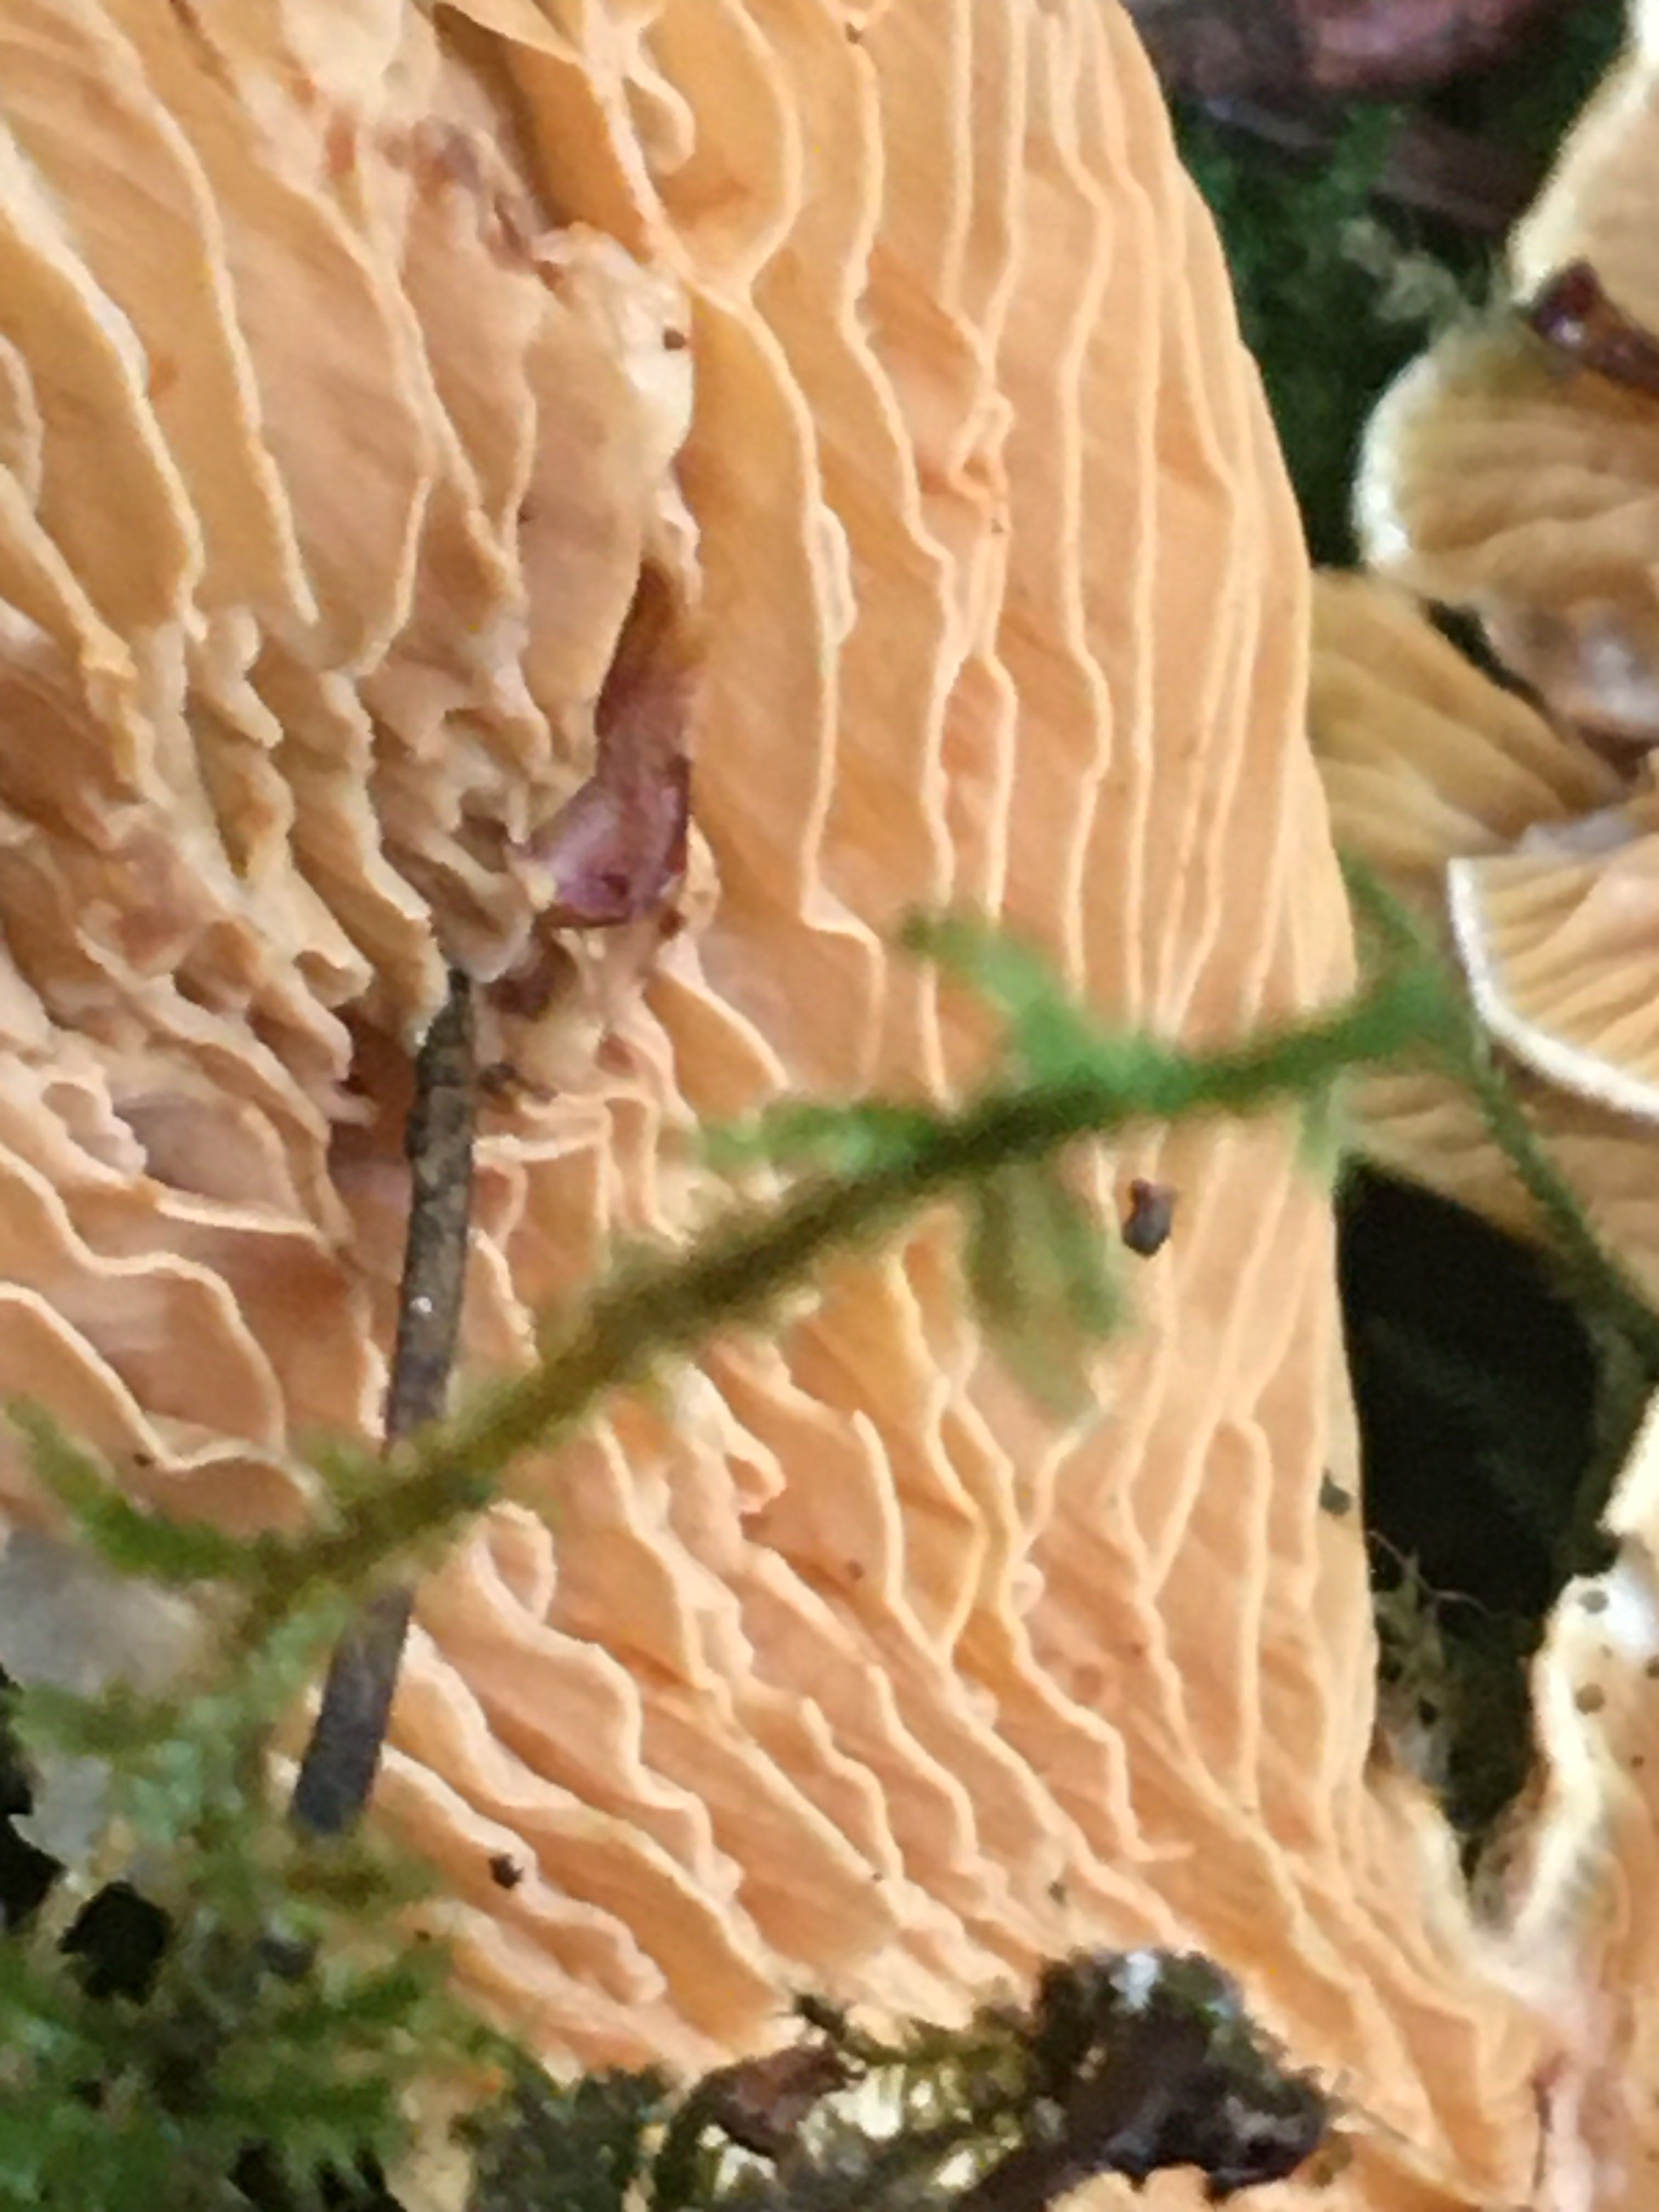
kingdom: Fungi
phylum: Basidiomycota
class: Agaricomycetes
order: Boletales
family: Tapinellaceae
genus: Tapinella
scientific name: Tapinella panuoides
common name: tømmer-viftesvamp
